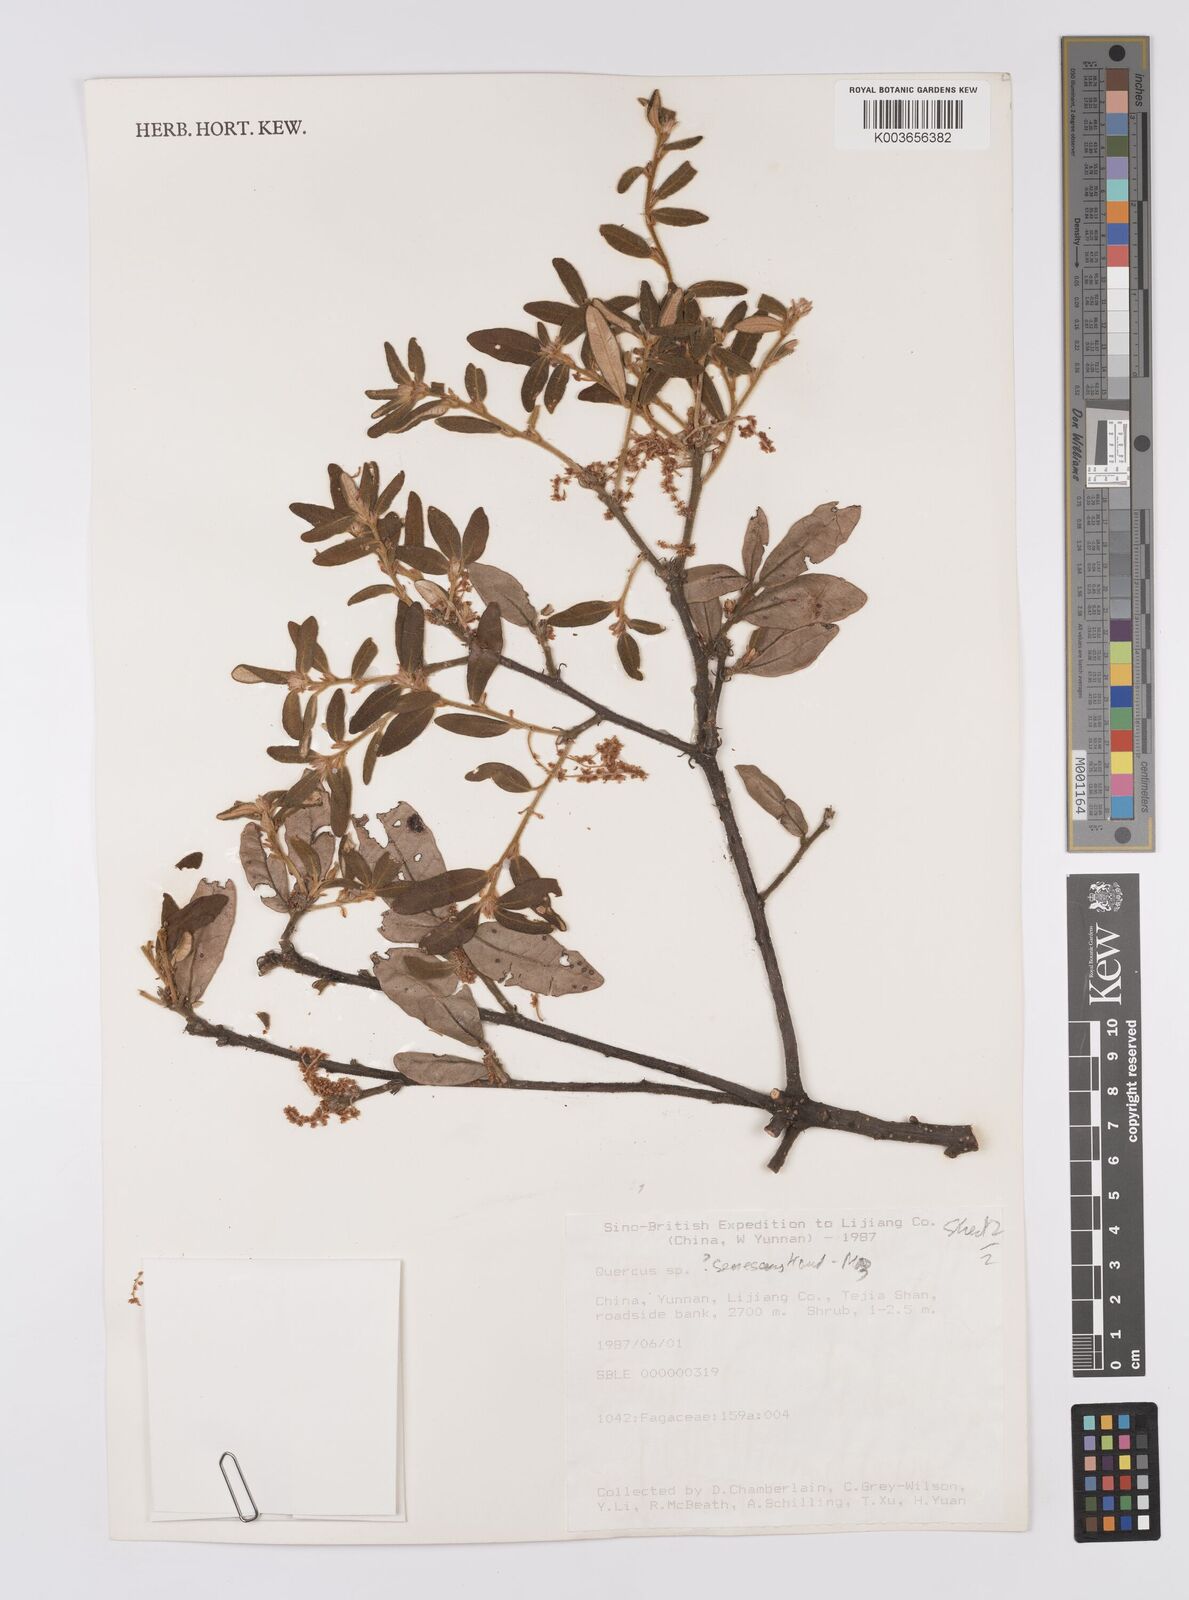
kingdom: Plantae
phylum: Tracheophyta
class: Magnoliopsida
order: Fagales
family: Fagaceae
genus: Quercus
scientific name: Quercus senescens
